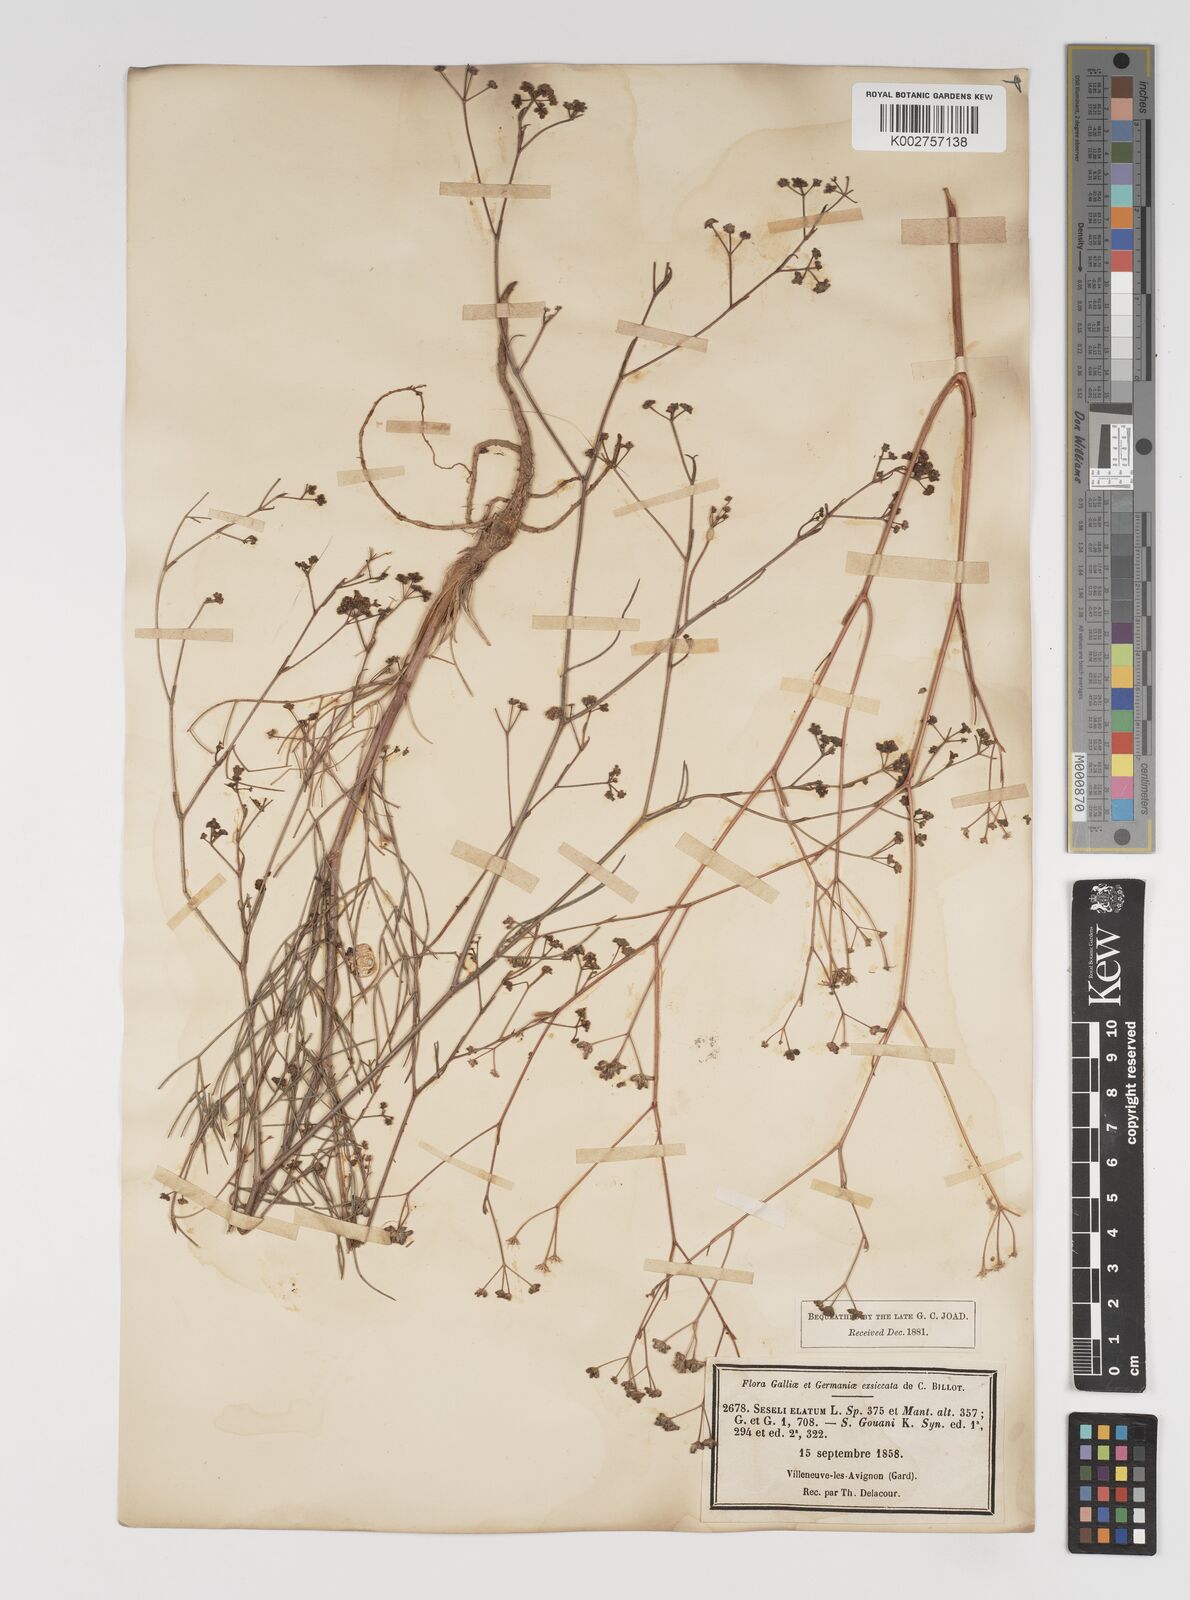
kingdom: Plantae
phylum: Tracheophyta
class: Magnoliopsida
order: Apiales
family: Apiaceae
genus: Seseli
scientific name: Seseli longifolium
